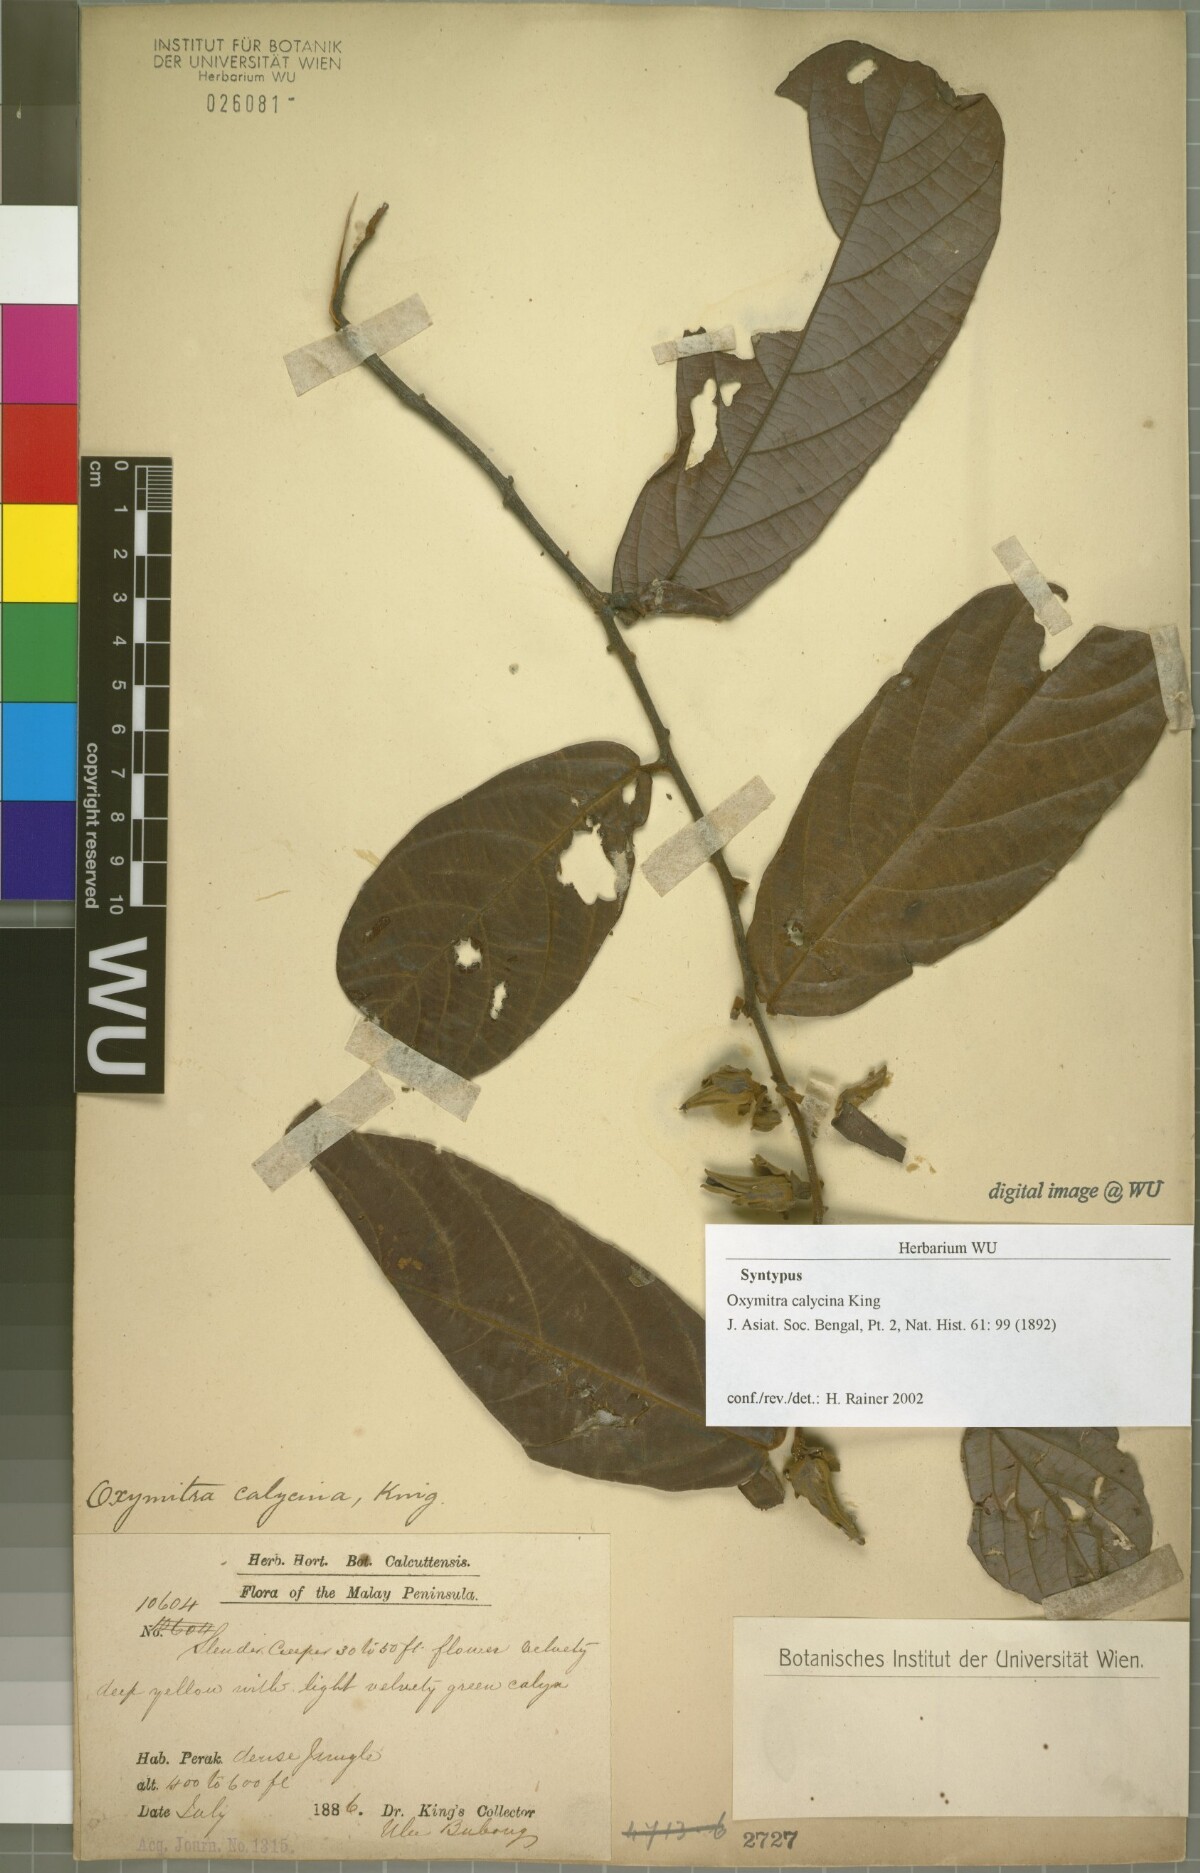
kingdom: Plantae
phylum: Tracheophyta
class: Magnoliopsida
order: Magnoliales
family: Annonaceae
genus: Friesodielsia
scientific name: Friesodielsia calycina
